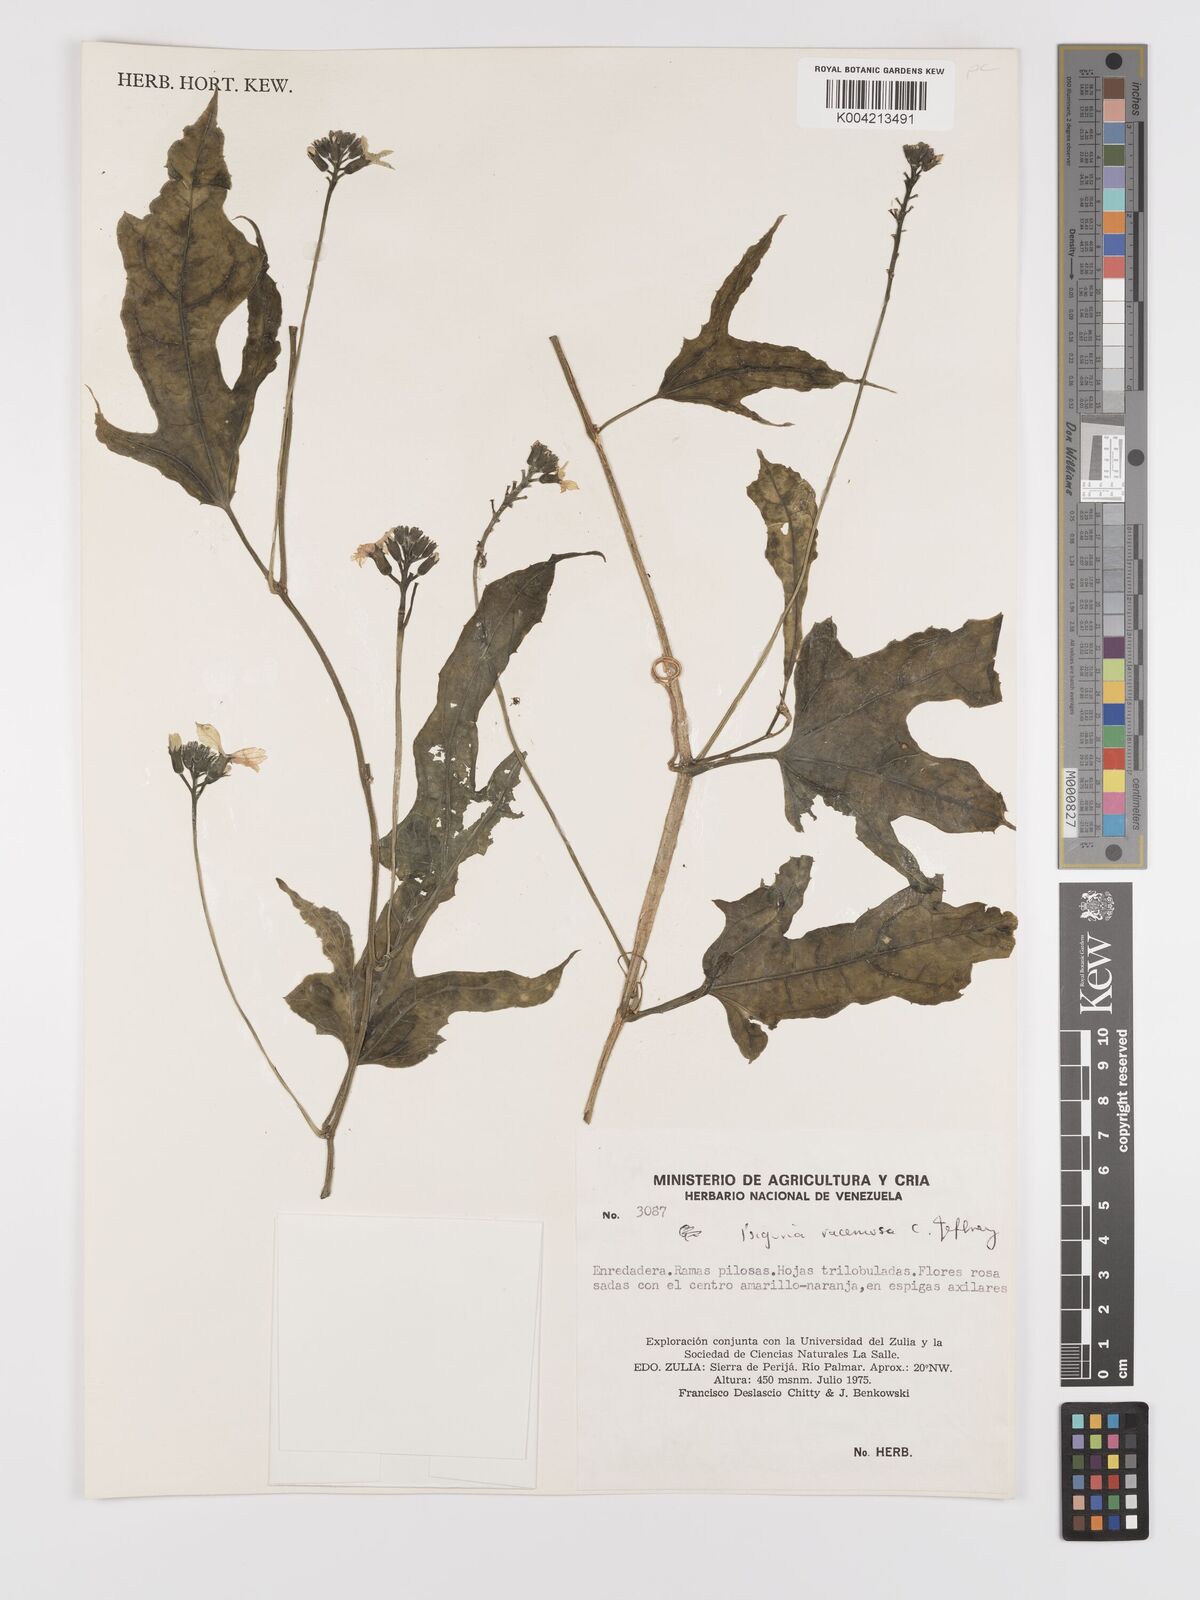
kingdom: Plantae
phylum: Tracheophyta
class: Magnoliopsida
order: Cucurbitales
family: Cucurbitaceae
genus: Psiguria
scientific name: Psiguria racemosa
